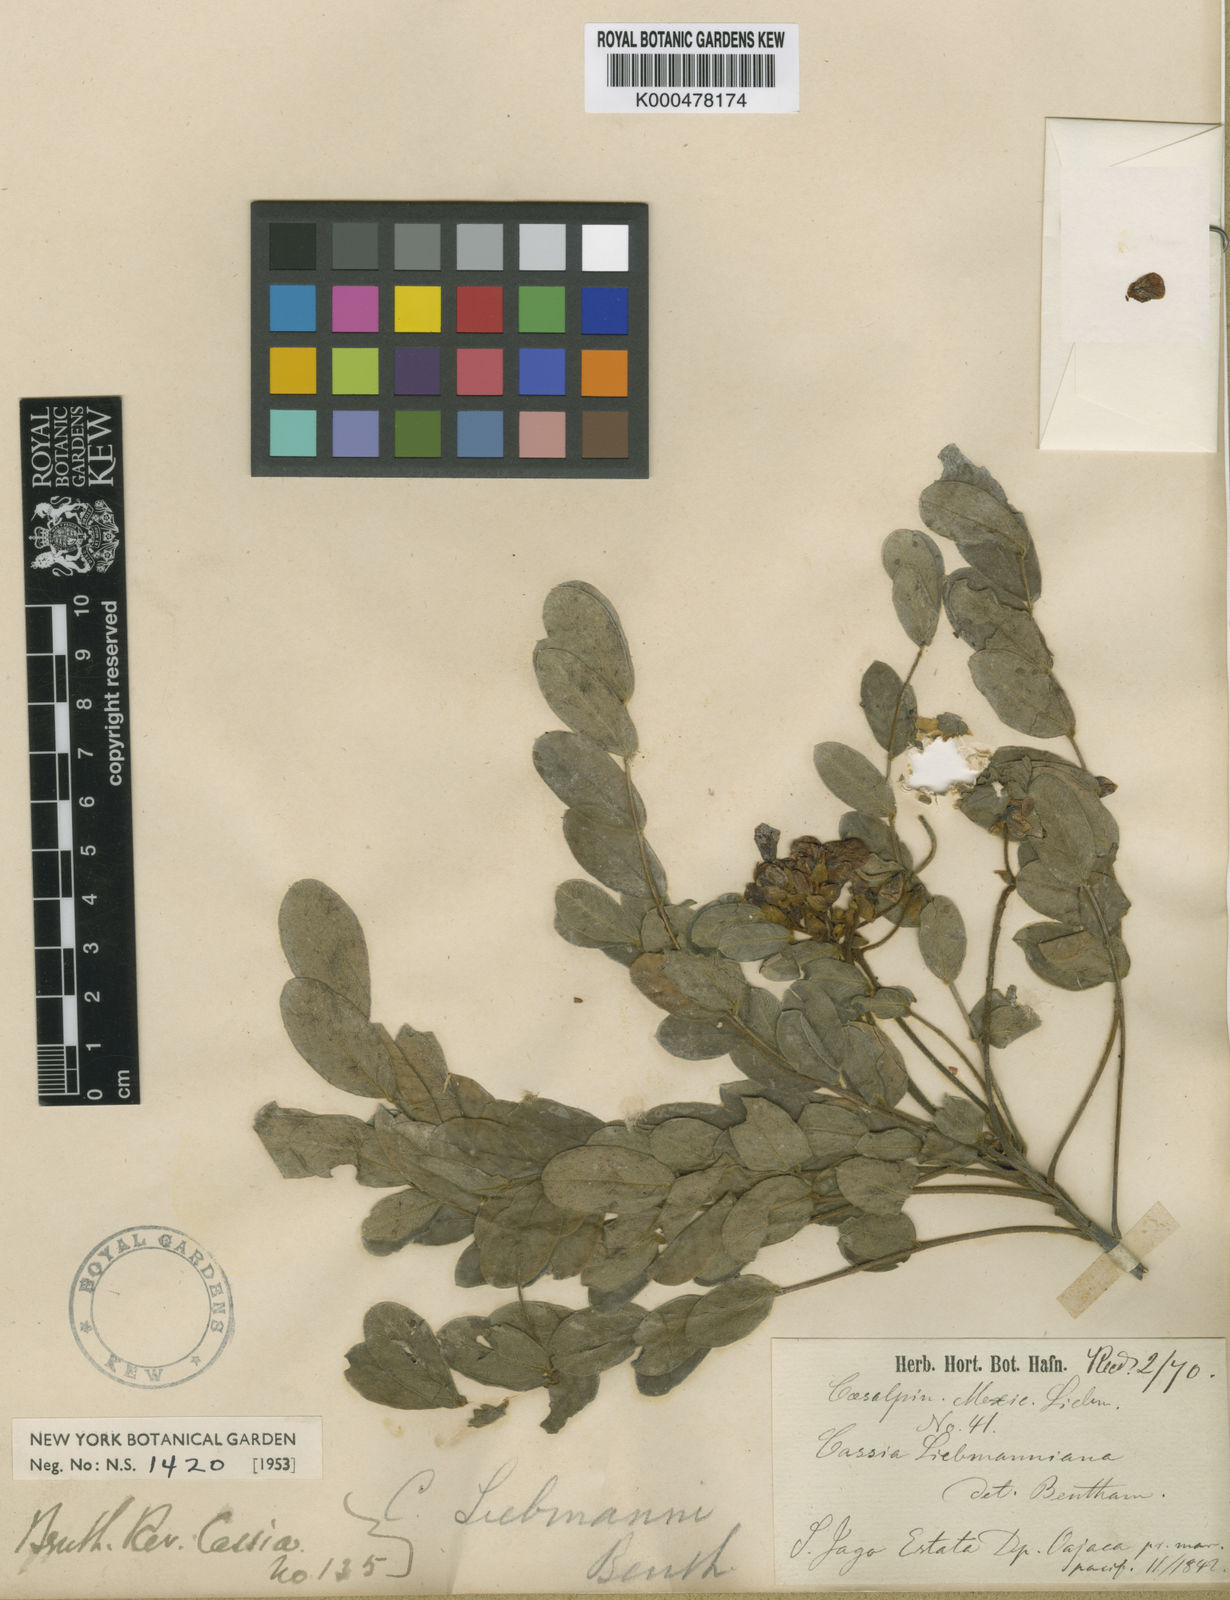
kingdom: Plantae
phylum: Tracheophyta
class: Magnoliopsida
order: Fabales
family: Fabaceae
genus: Senna
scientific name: Senna racemosa
